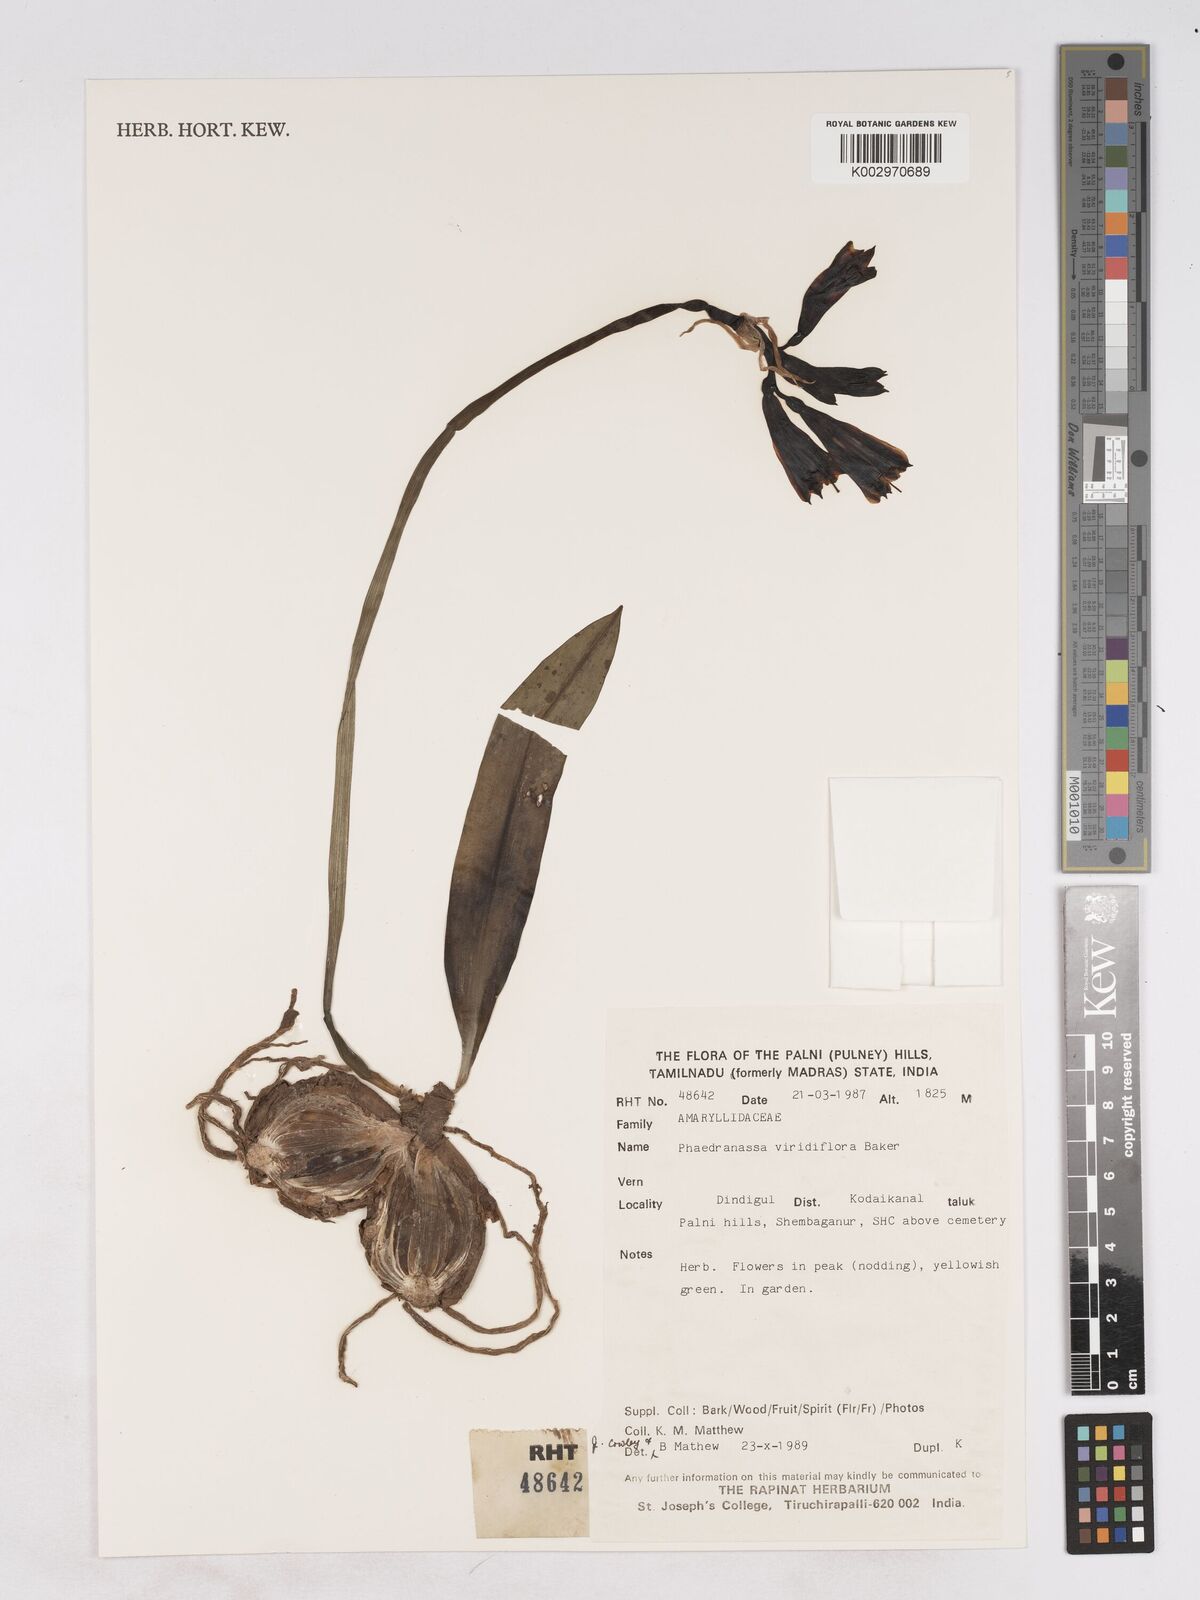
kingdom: Plantae
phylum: Tracheophyta
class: Liliopsida
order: Asparagales
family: Amaryllidaceae
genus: Phaedranassa
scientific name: Phaedranassa viridiflora
